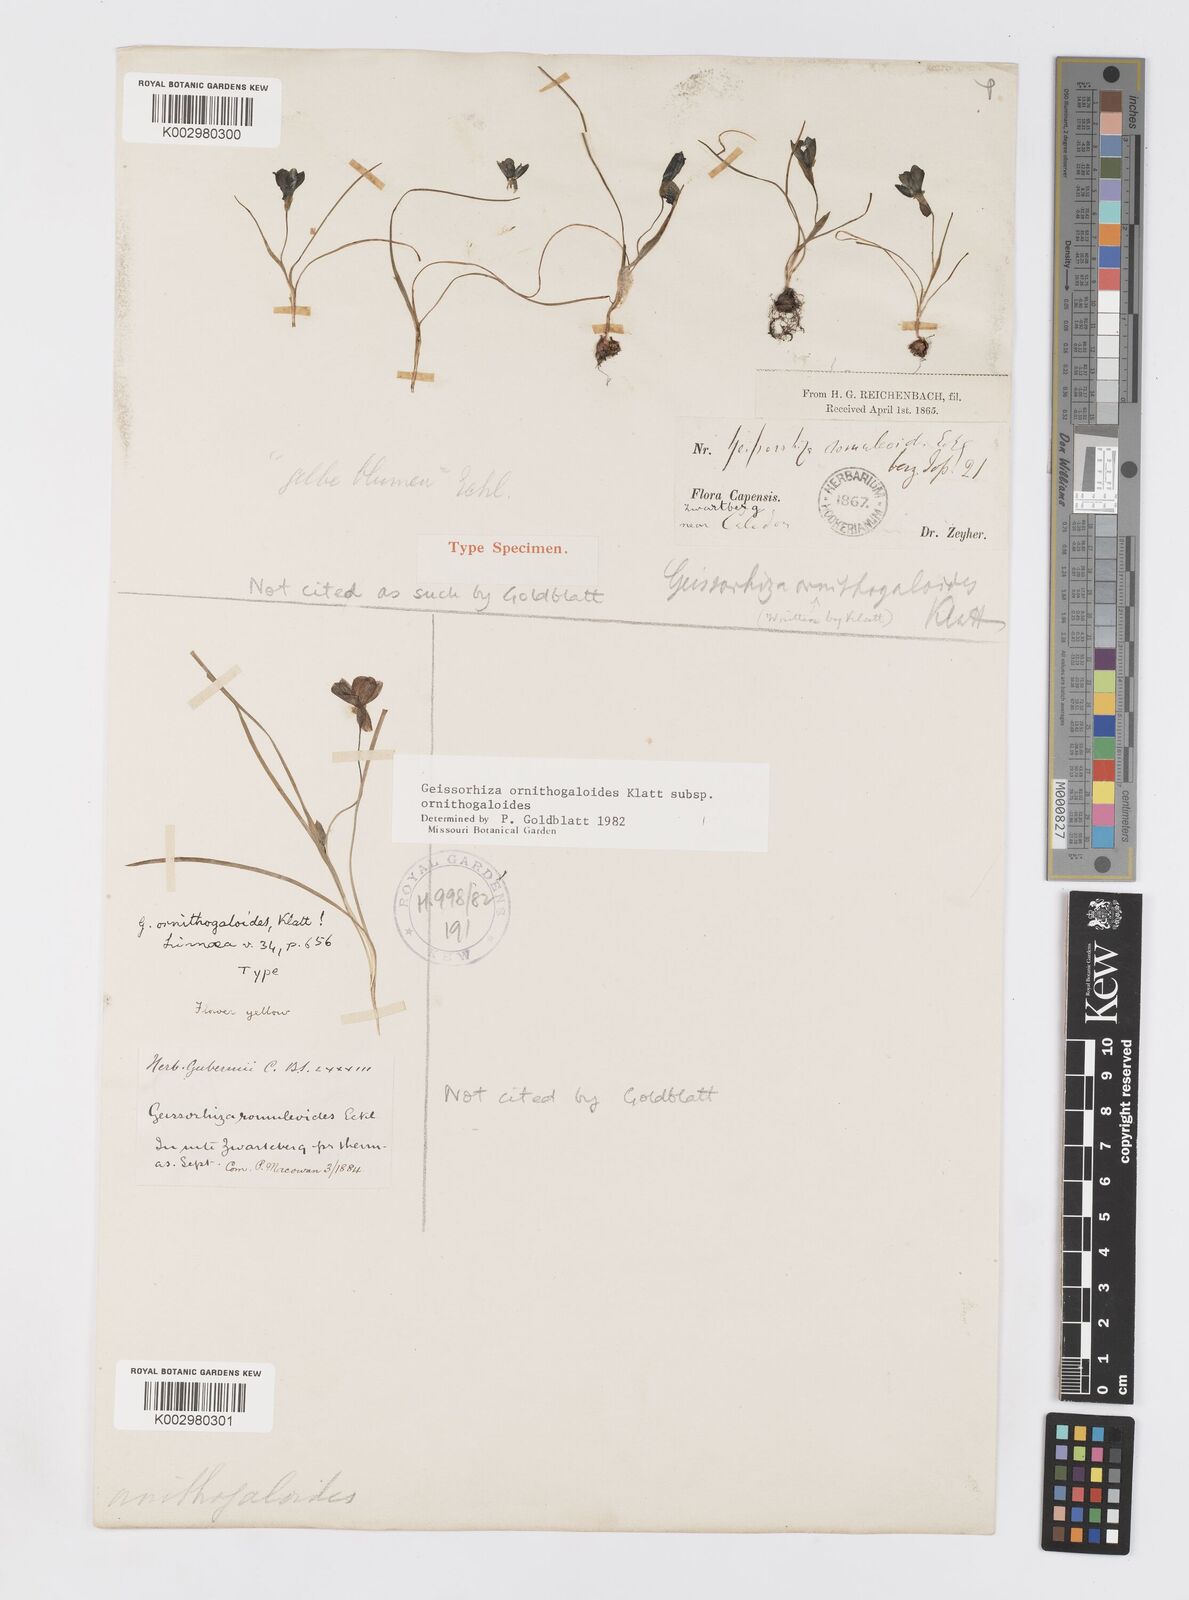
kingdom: Plantae
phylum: Tracheophyta
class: Liliopsida
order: Asparagales
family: Iridaceae
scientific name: Iridaceae
